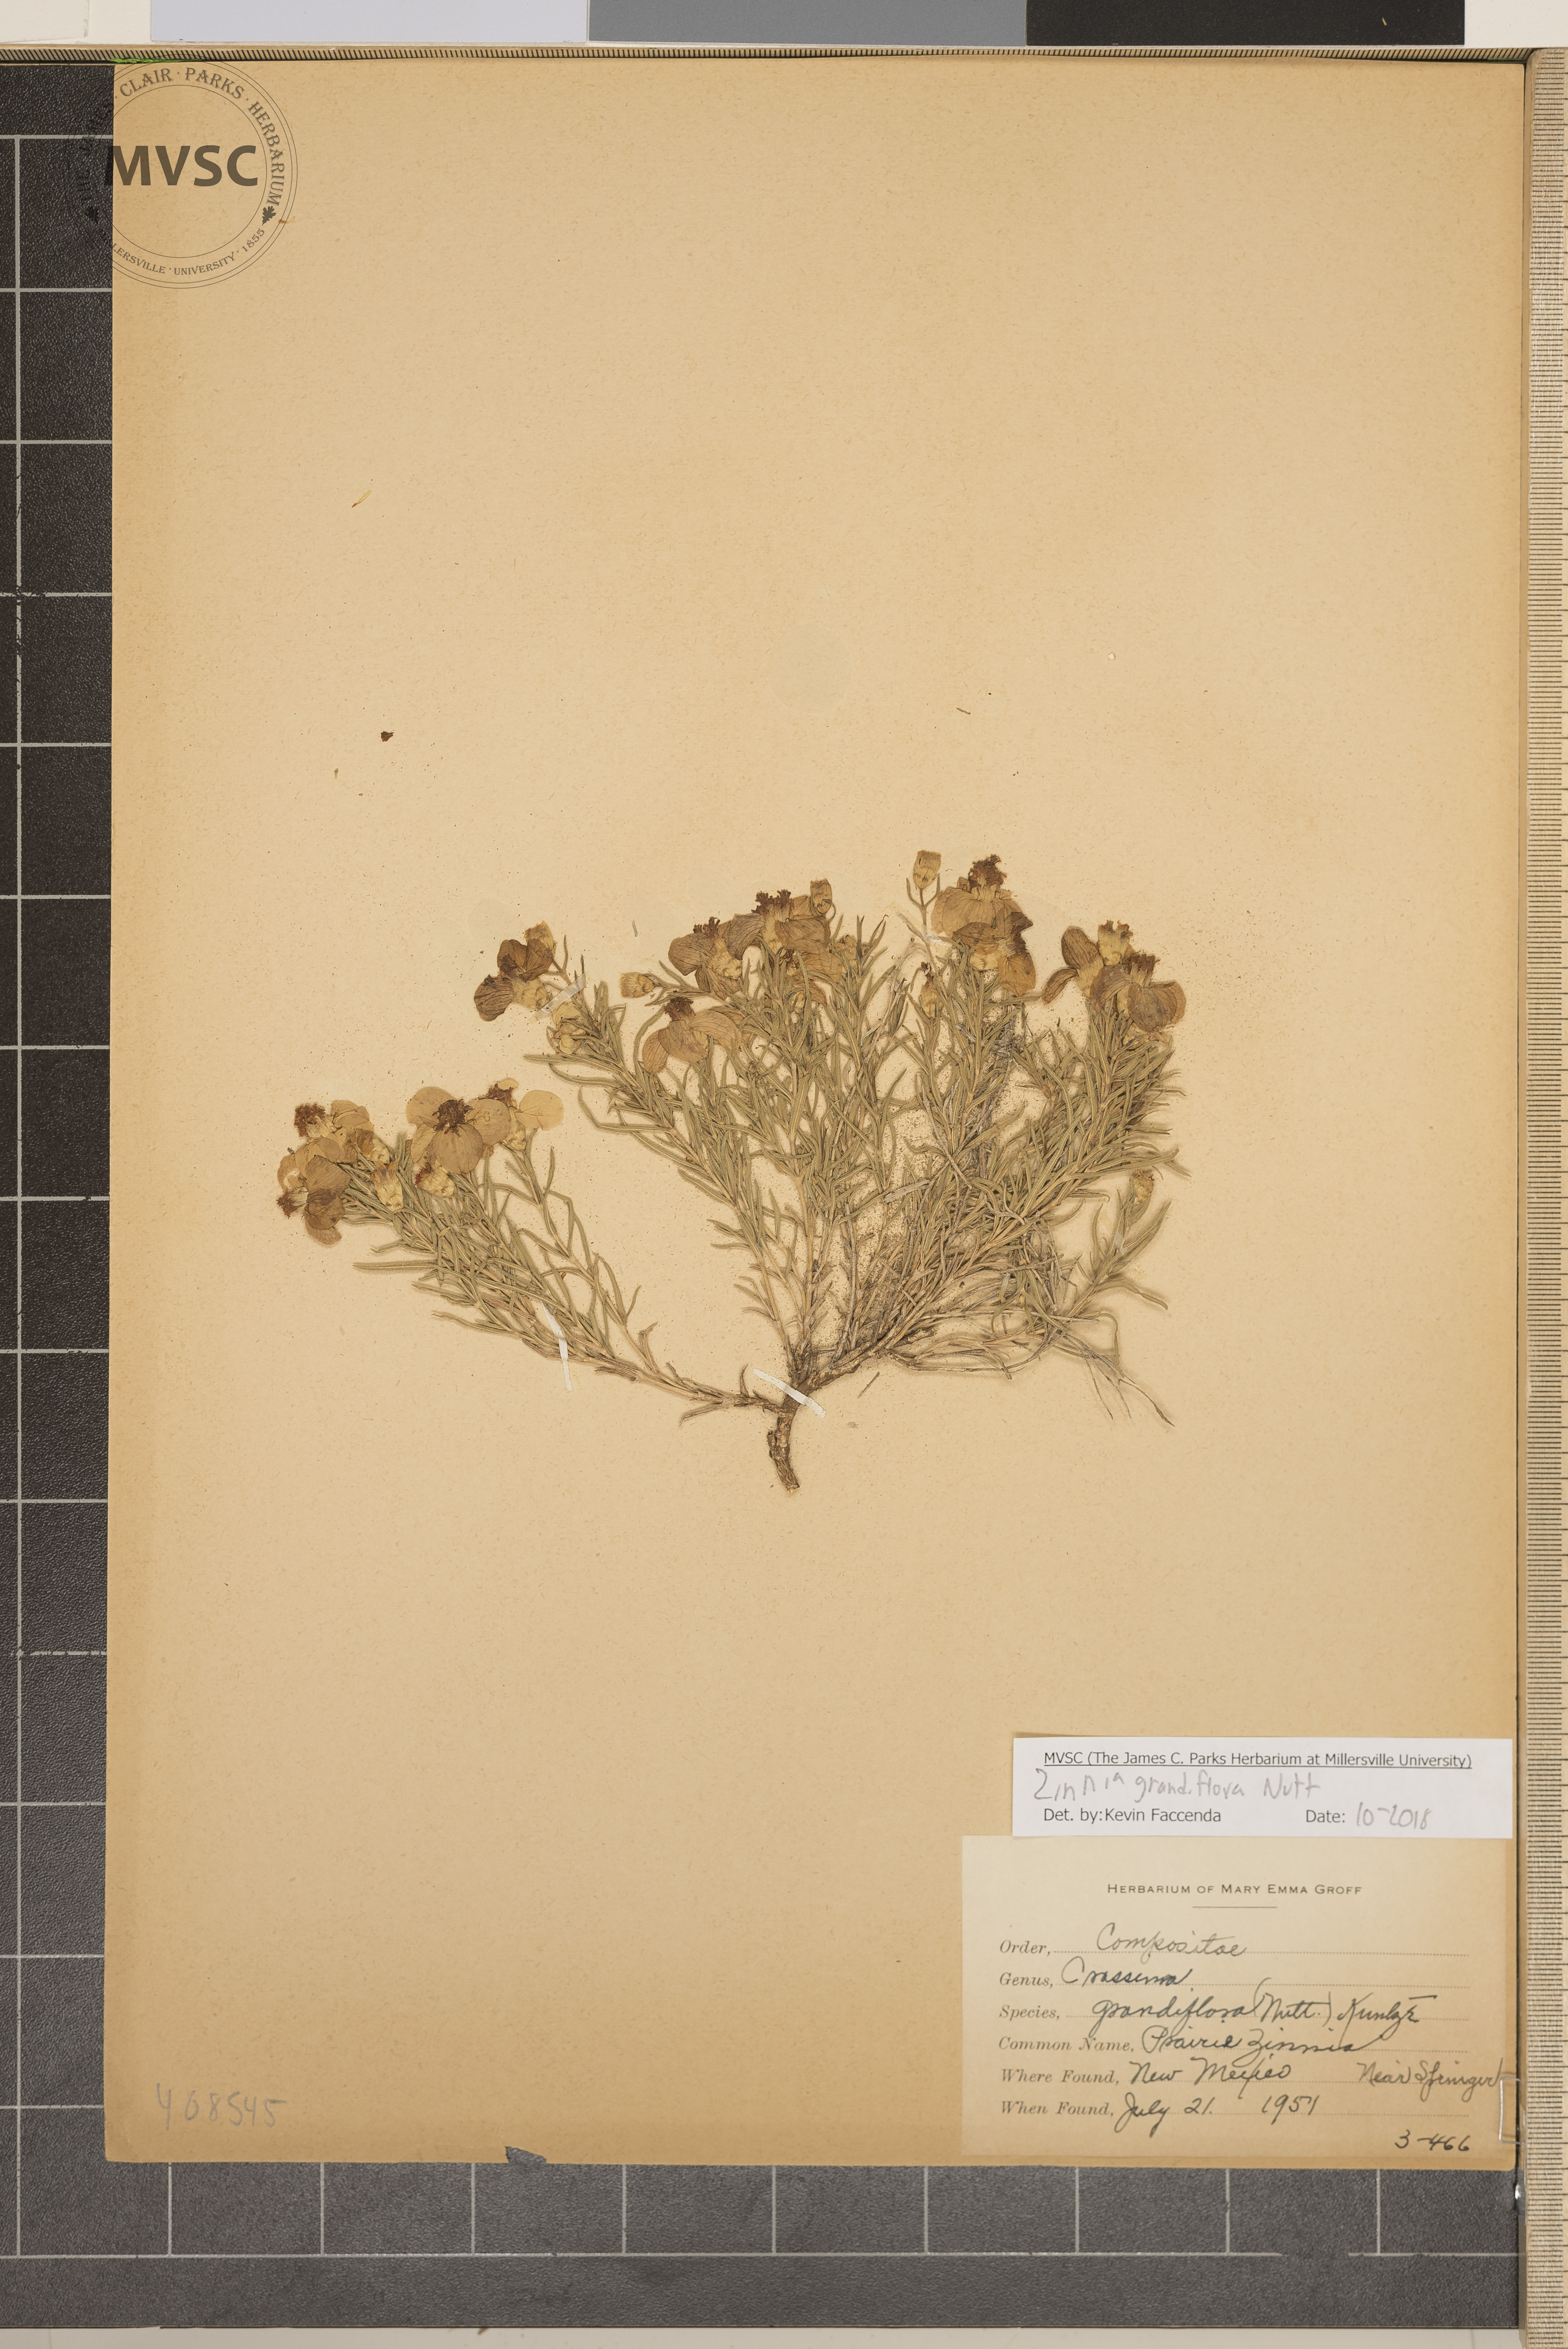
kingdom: Plantae
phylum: Tracheophyta
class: Magnoliopsida
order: Asterales
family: Asteraceae
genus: Zinnia
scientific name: Zinnia grandiflora
